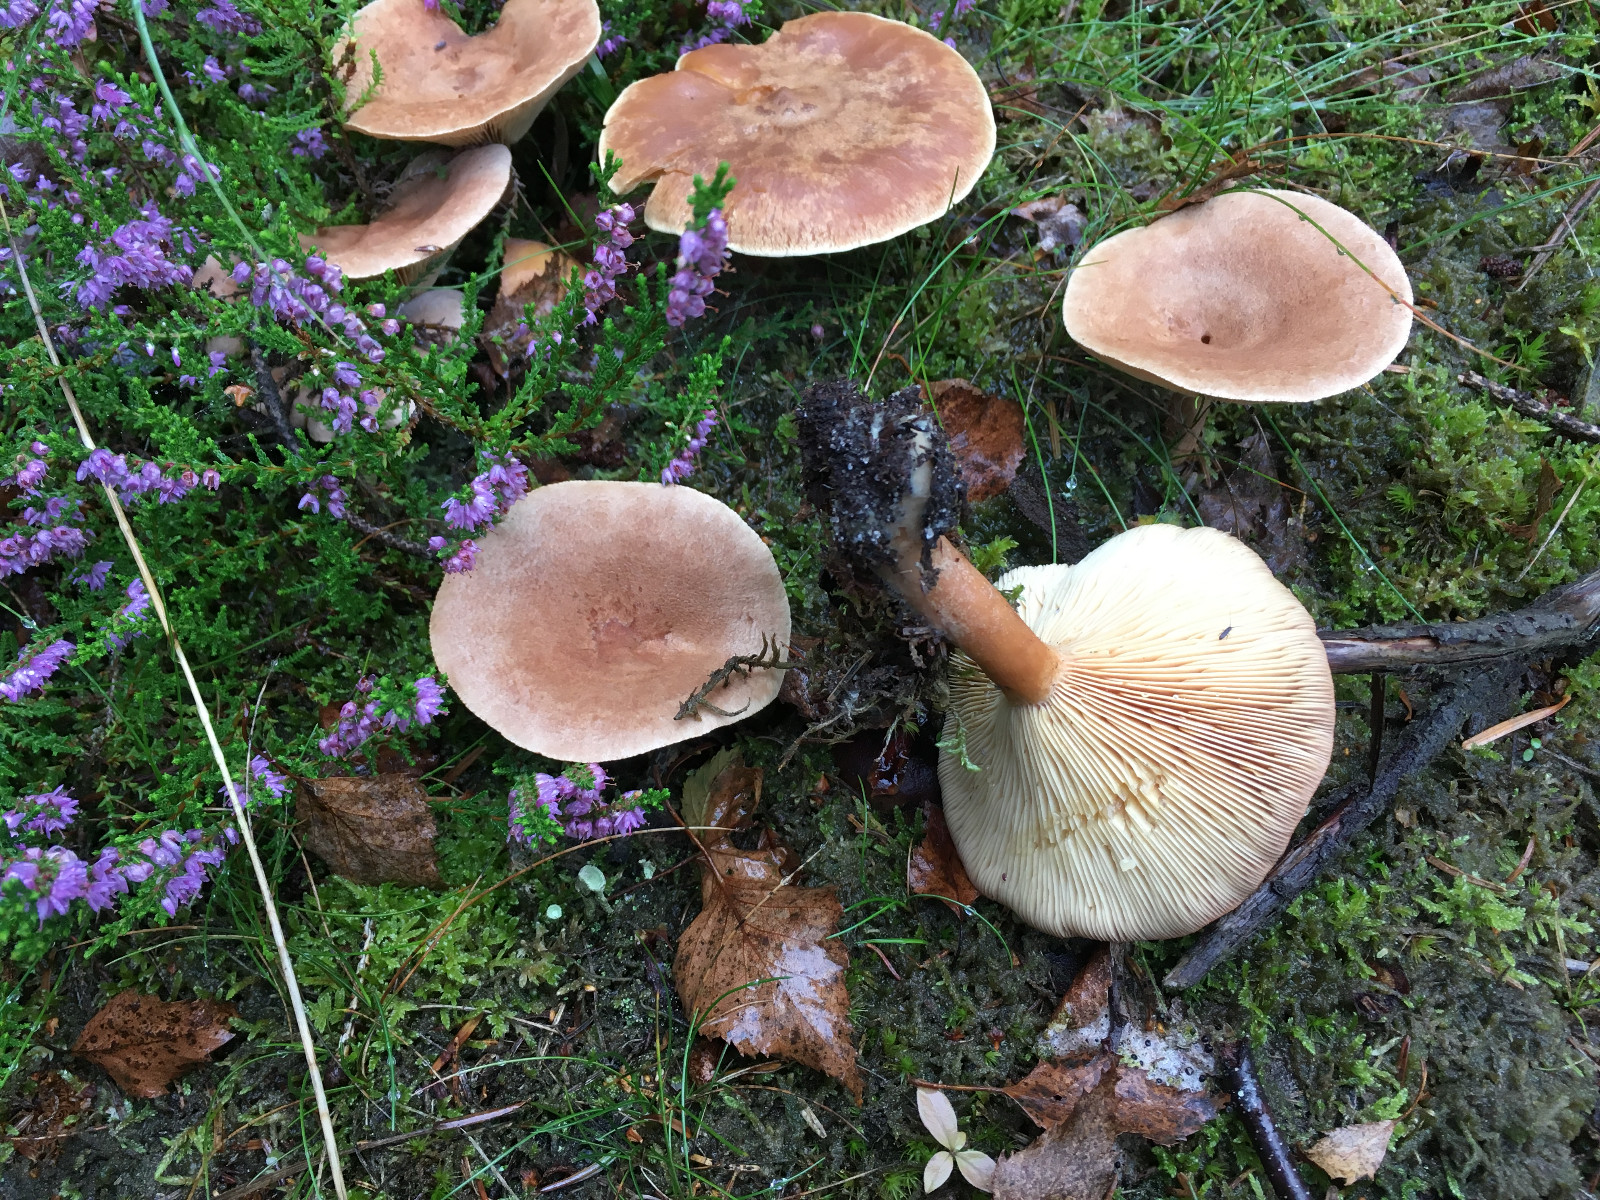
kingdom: Fungi
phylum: Basidiomycota
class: Agaricomycetes
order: Russulales
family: Russulaceae
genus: Lactarius
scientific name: Lactarius helvus
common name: mose-mælkehat
